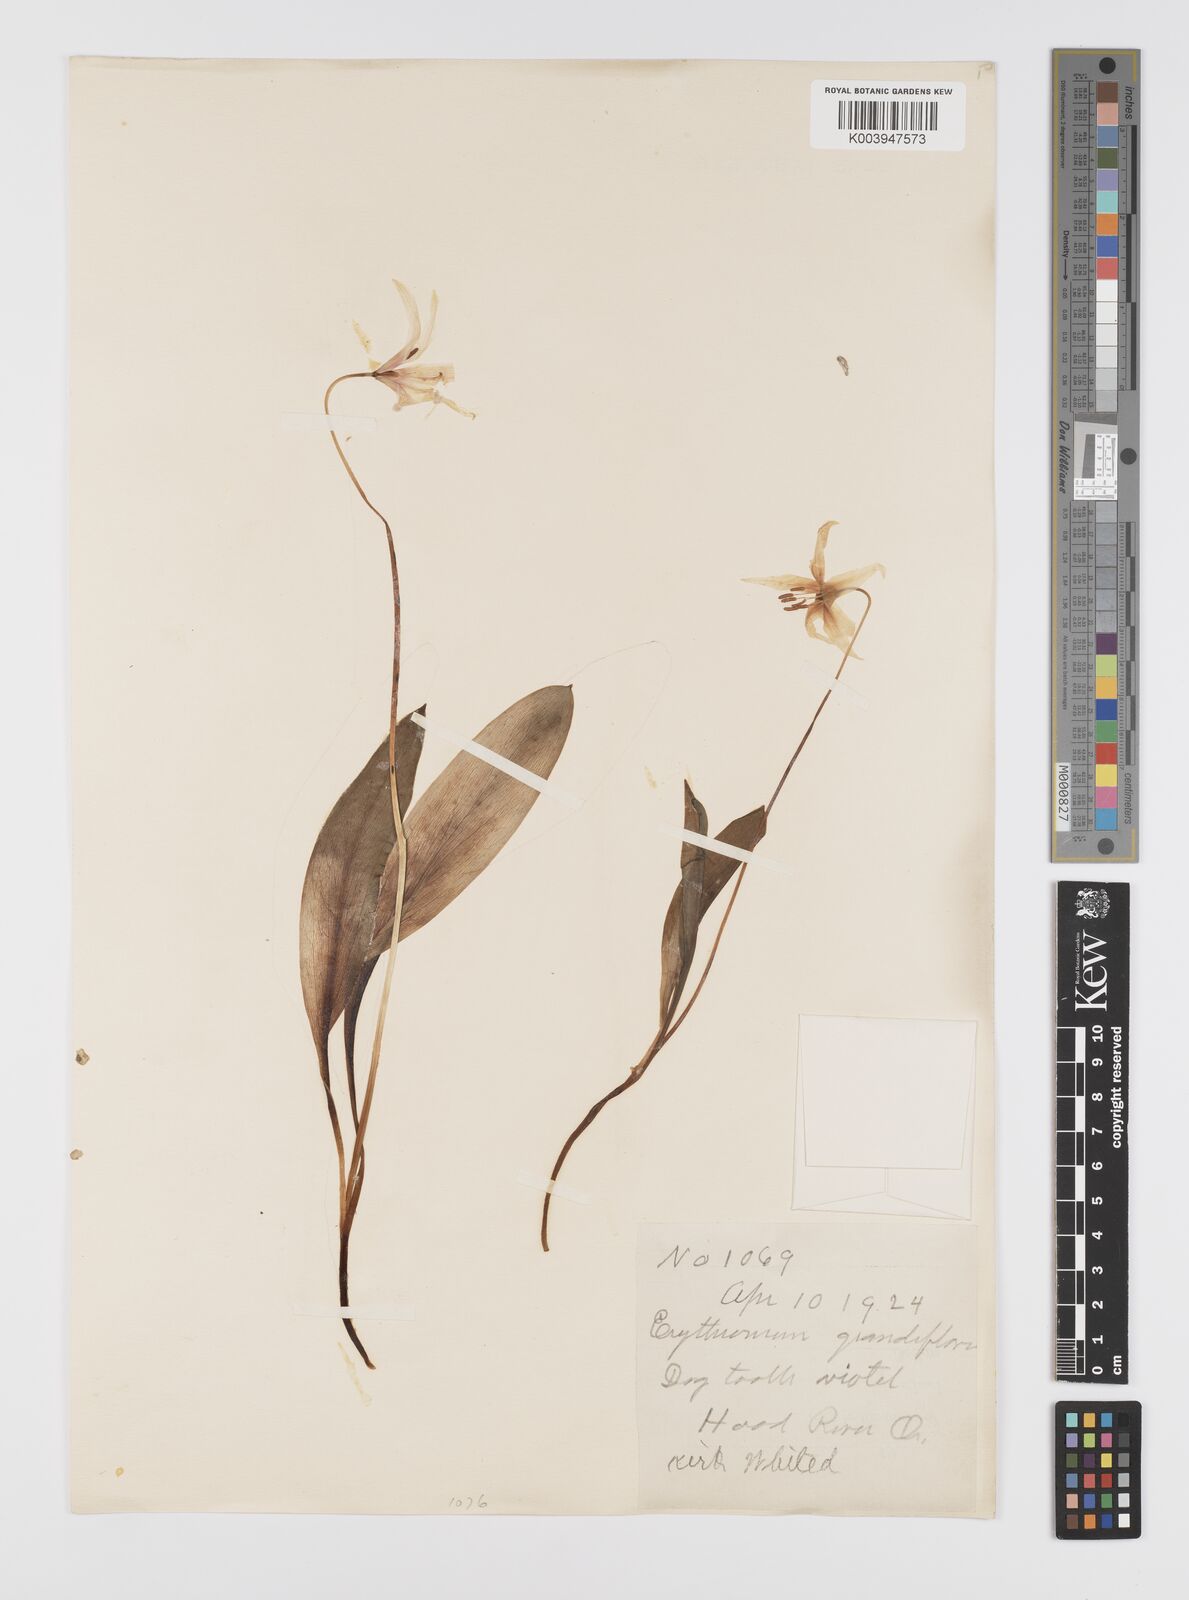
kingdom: Plantae
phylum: Tracheophyta
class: Liliopsida
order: Liliales
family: Liliaceae
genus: Erythronium
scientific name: Erythronium grandiflorum
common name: Avalanche-lily
